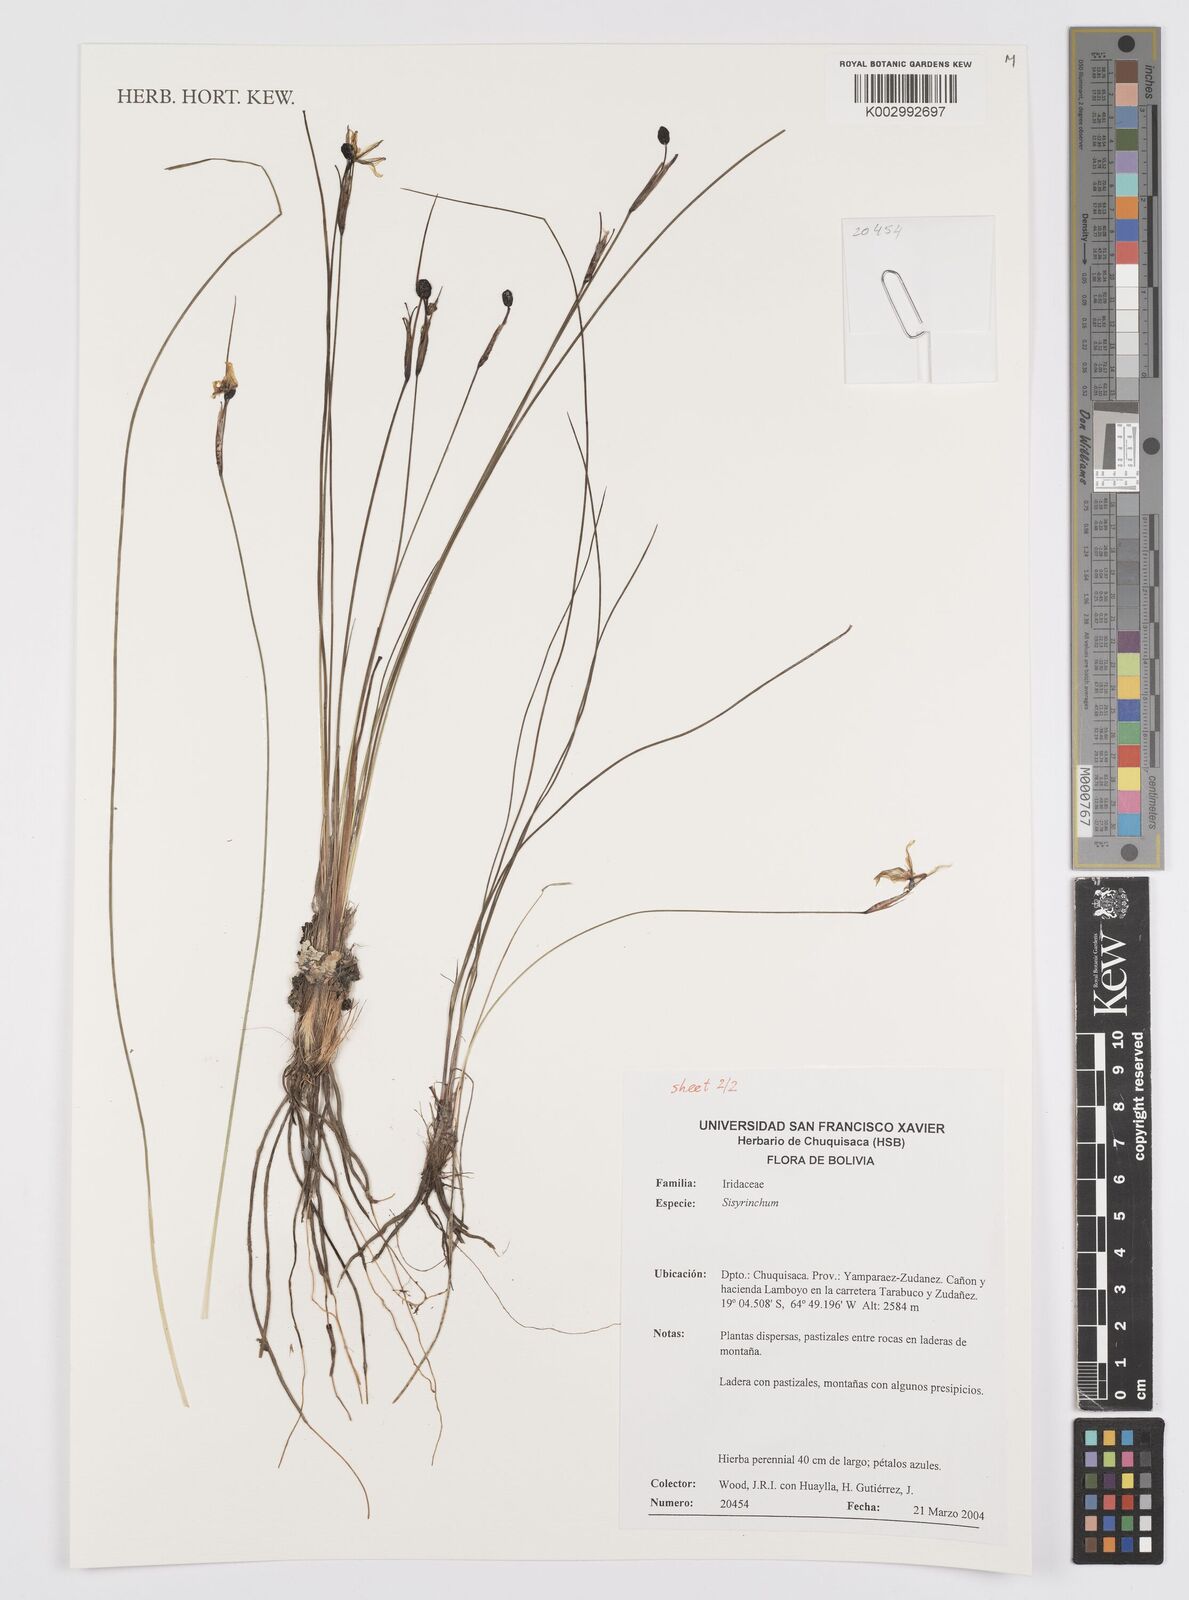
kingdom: Plantae
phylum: Tracheophyta
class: Liliopsida
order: Asparagales
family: Iridaceae
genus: Sisyrinchium
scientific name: Sisyrinchium
